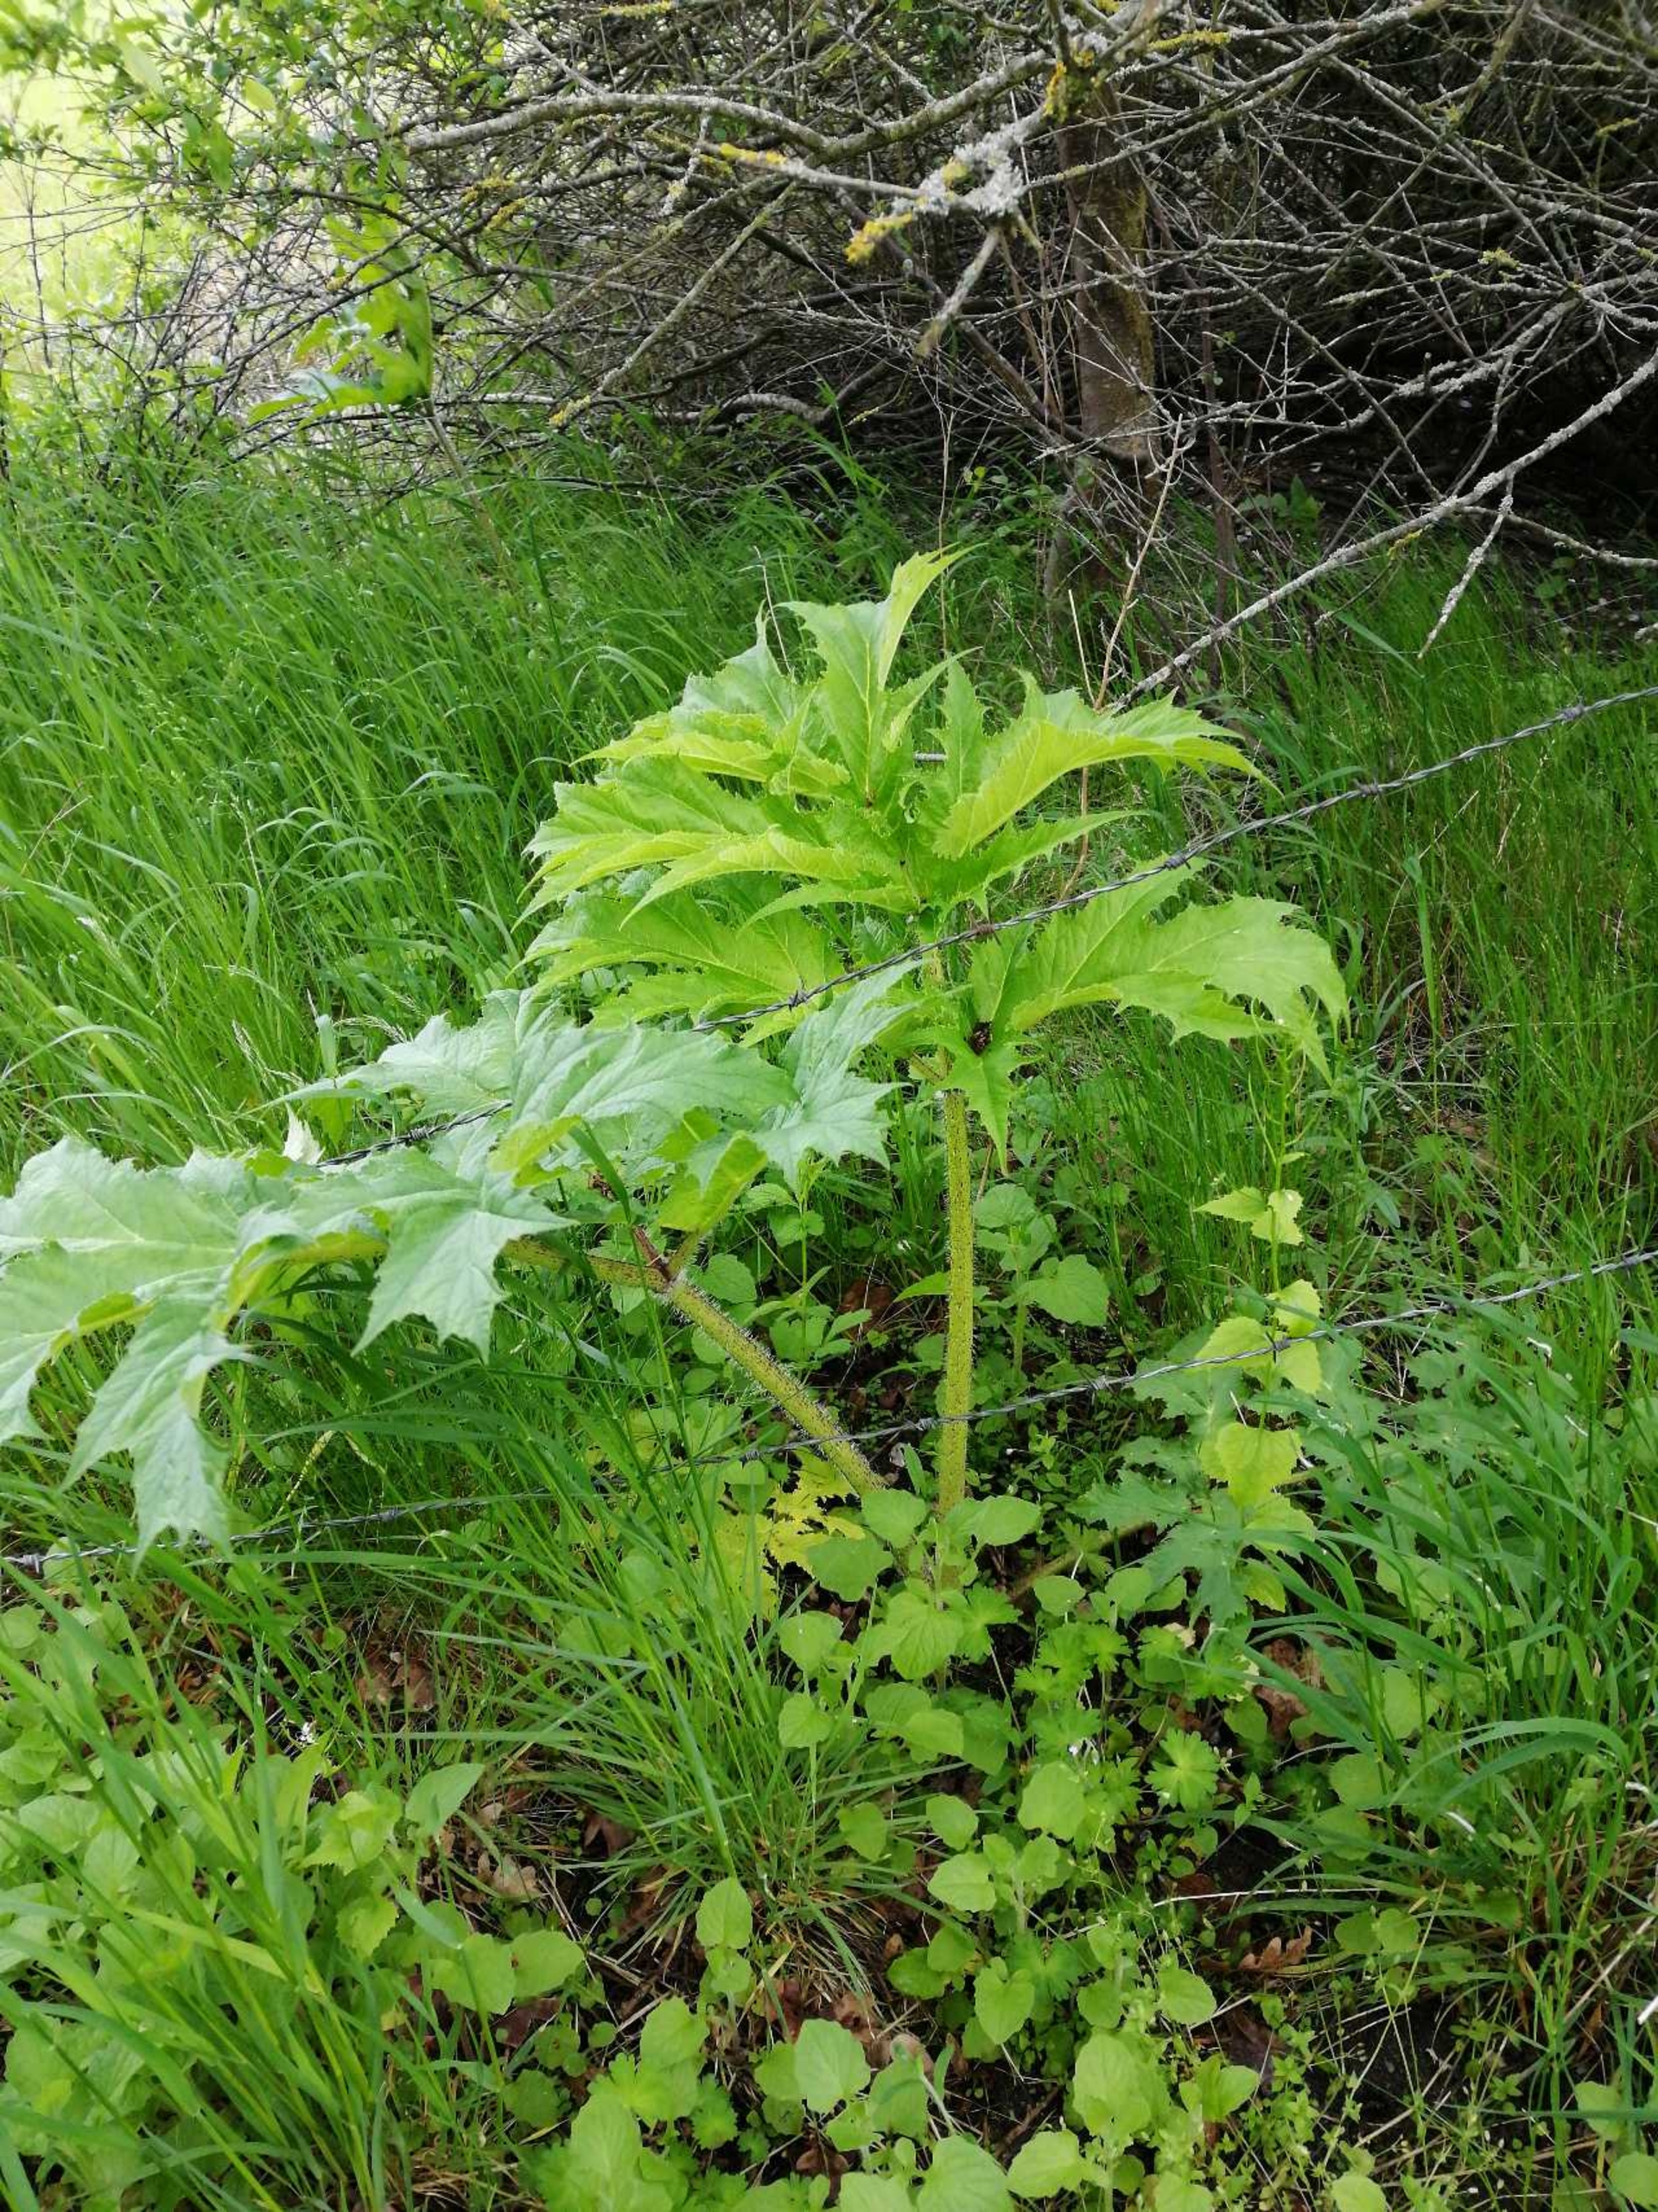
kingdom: Plantae
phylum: Tracheophyta
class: Magnoliopsida
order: Apiales
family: Apiaceae
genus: Heracleum
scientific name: Heracleum mantegazzianum
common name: Kæmpe-bjørneklo
